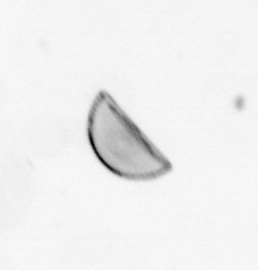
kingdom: Chromista
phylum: Ochrophyta
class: Bacillariophyceae
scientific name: Bacillariophyceae
